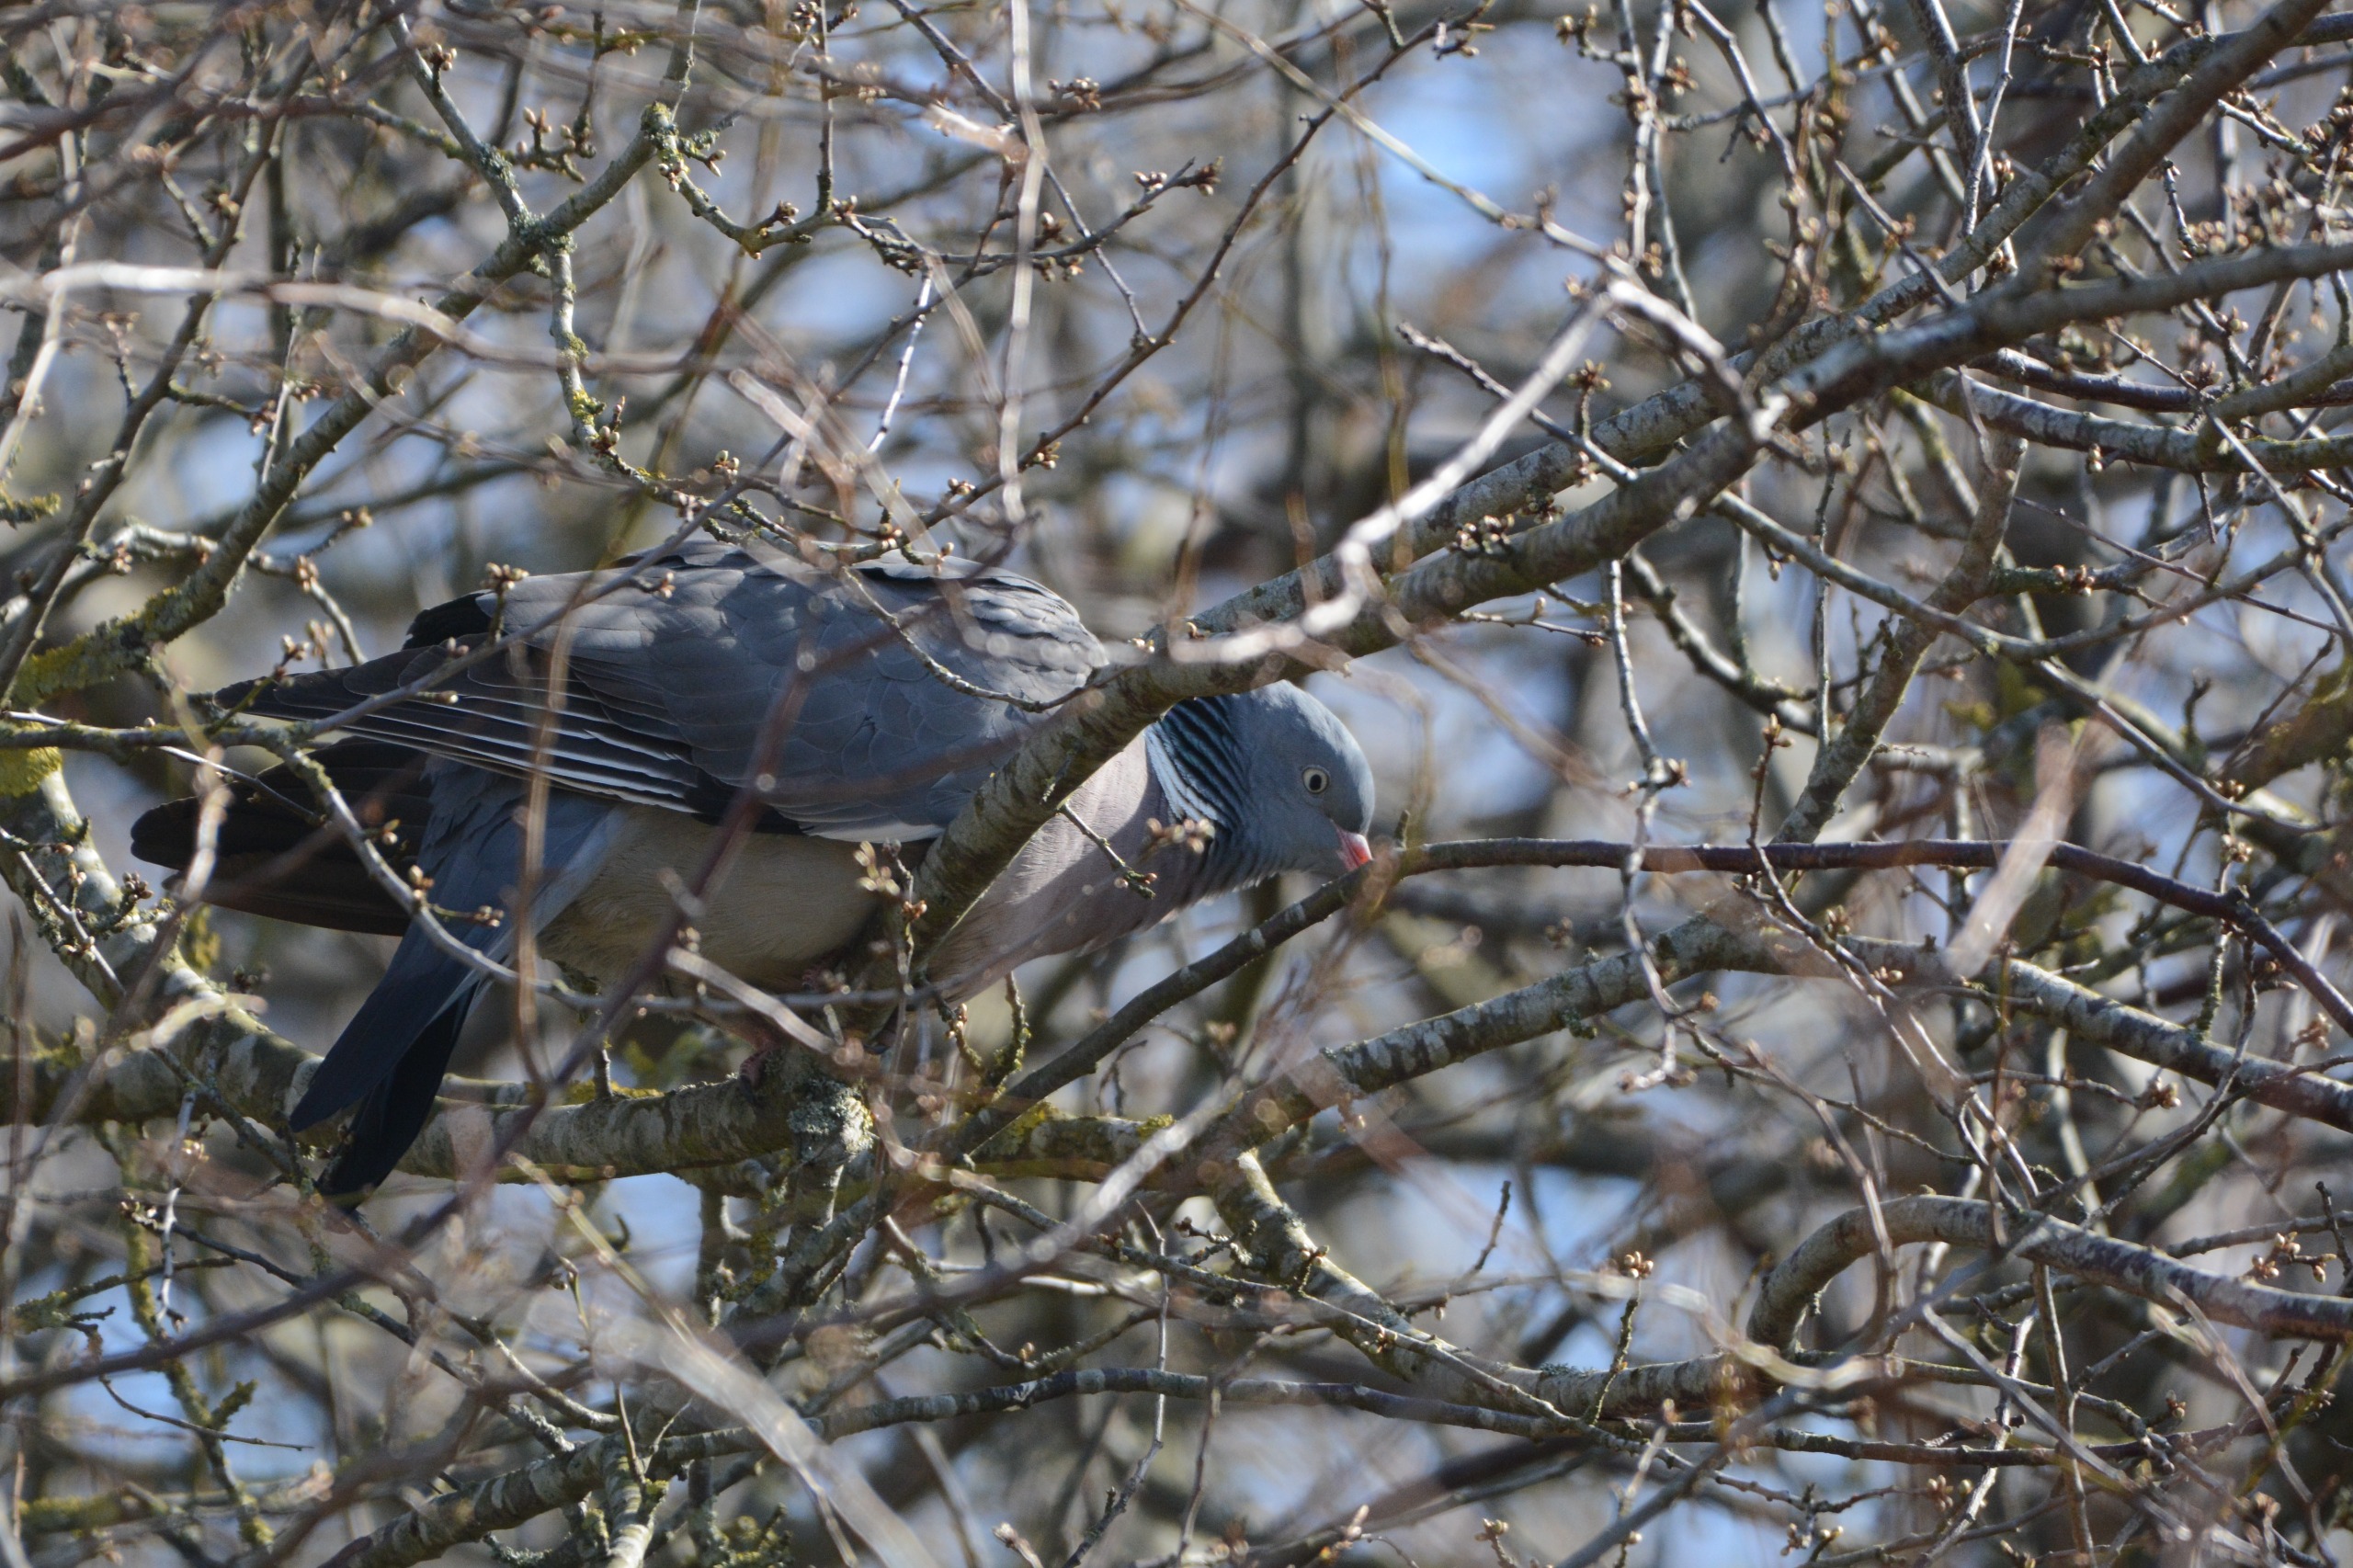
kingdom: Animalia
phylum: Chordata
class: Aves
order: Columbiformes
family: Columbidae
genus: Columba
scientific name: Columba palumbus
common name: Ringdue
